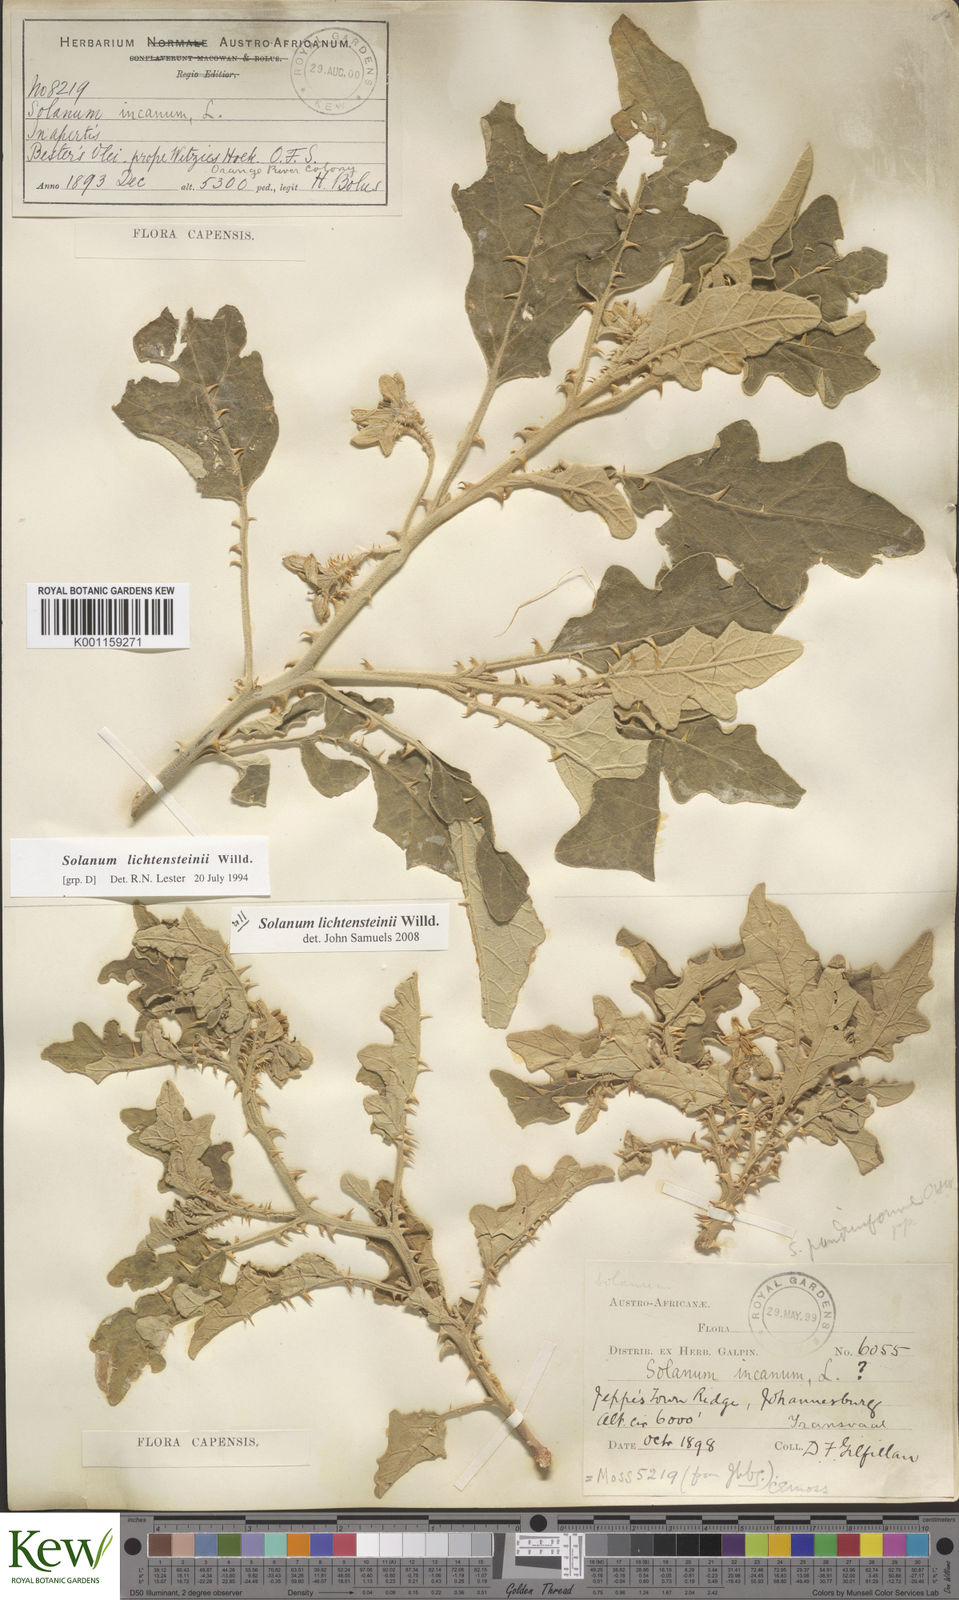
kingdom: Plantae
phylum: Tracheophyta
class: Magnoliopsida
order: Solanales
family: Solanaceae
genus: Solanum
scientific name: Solanum lichtensteinii
